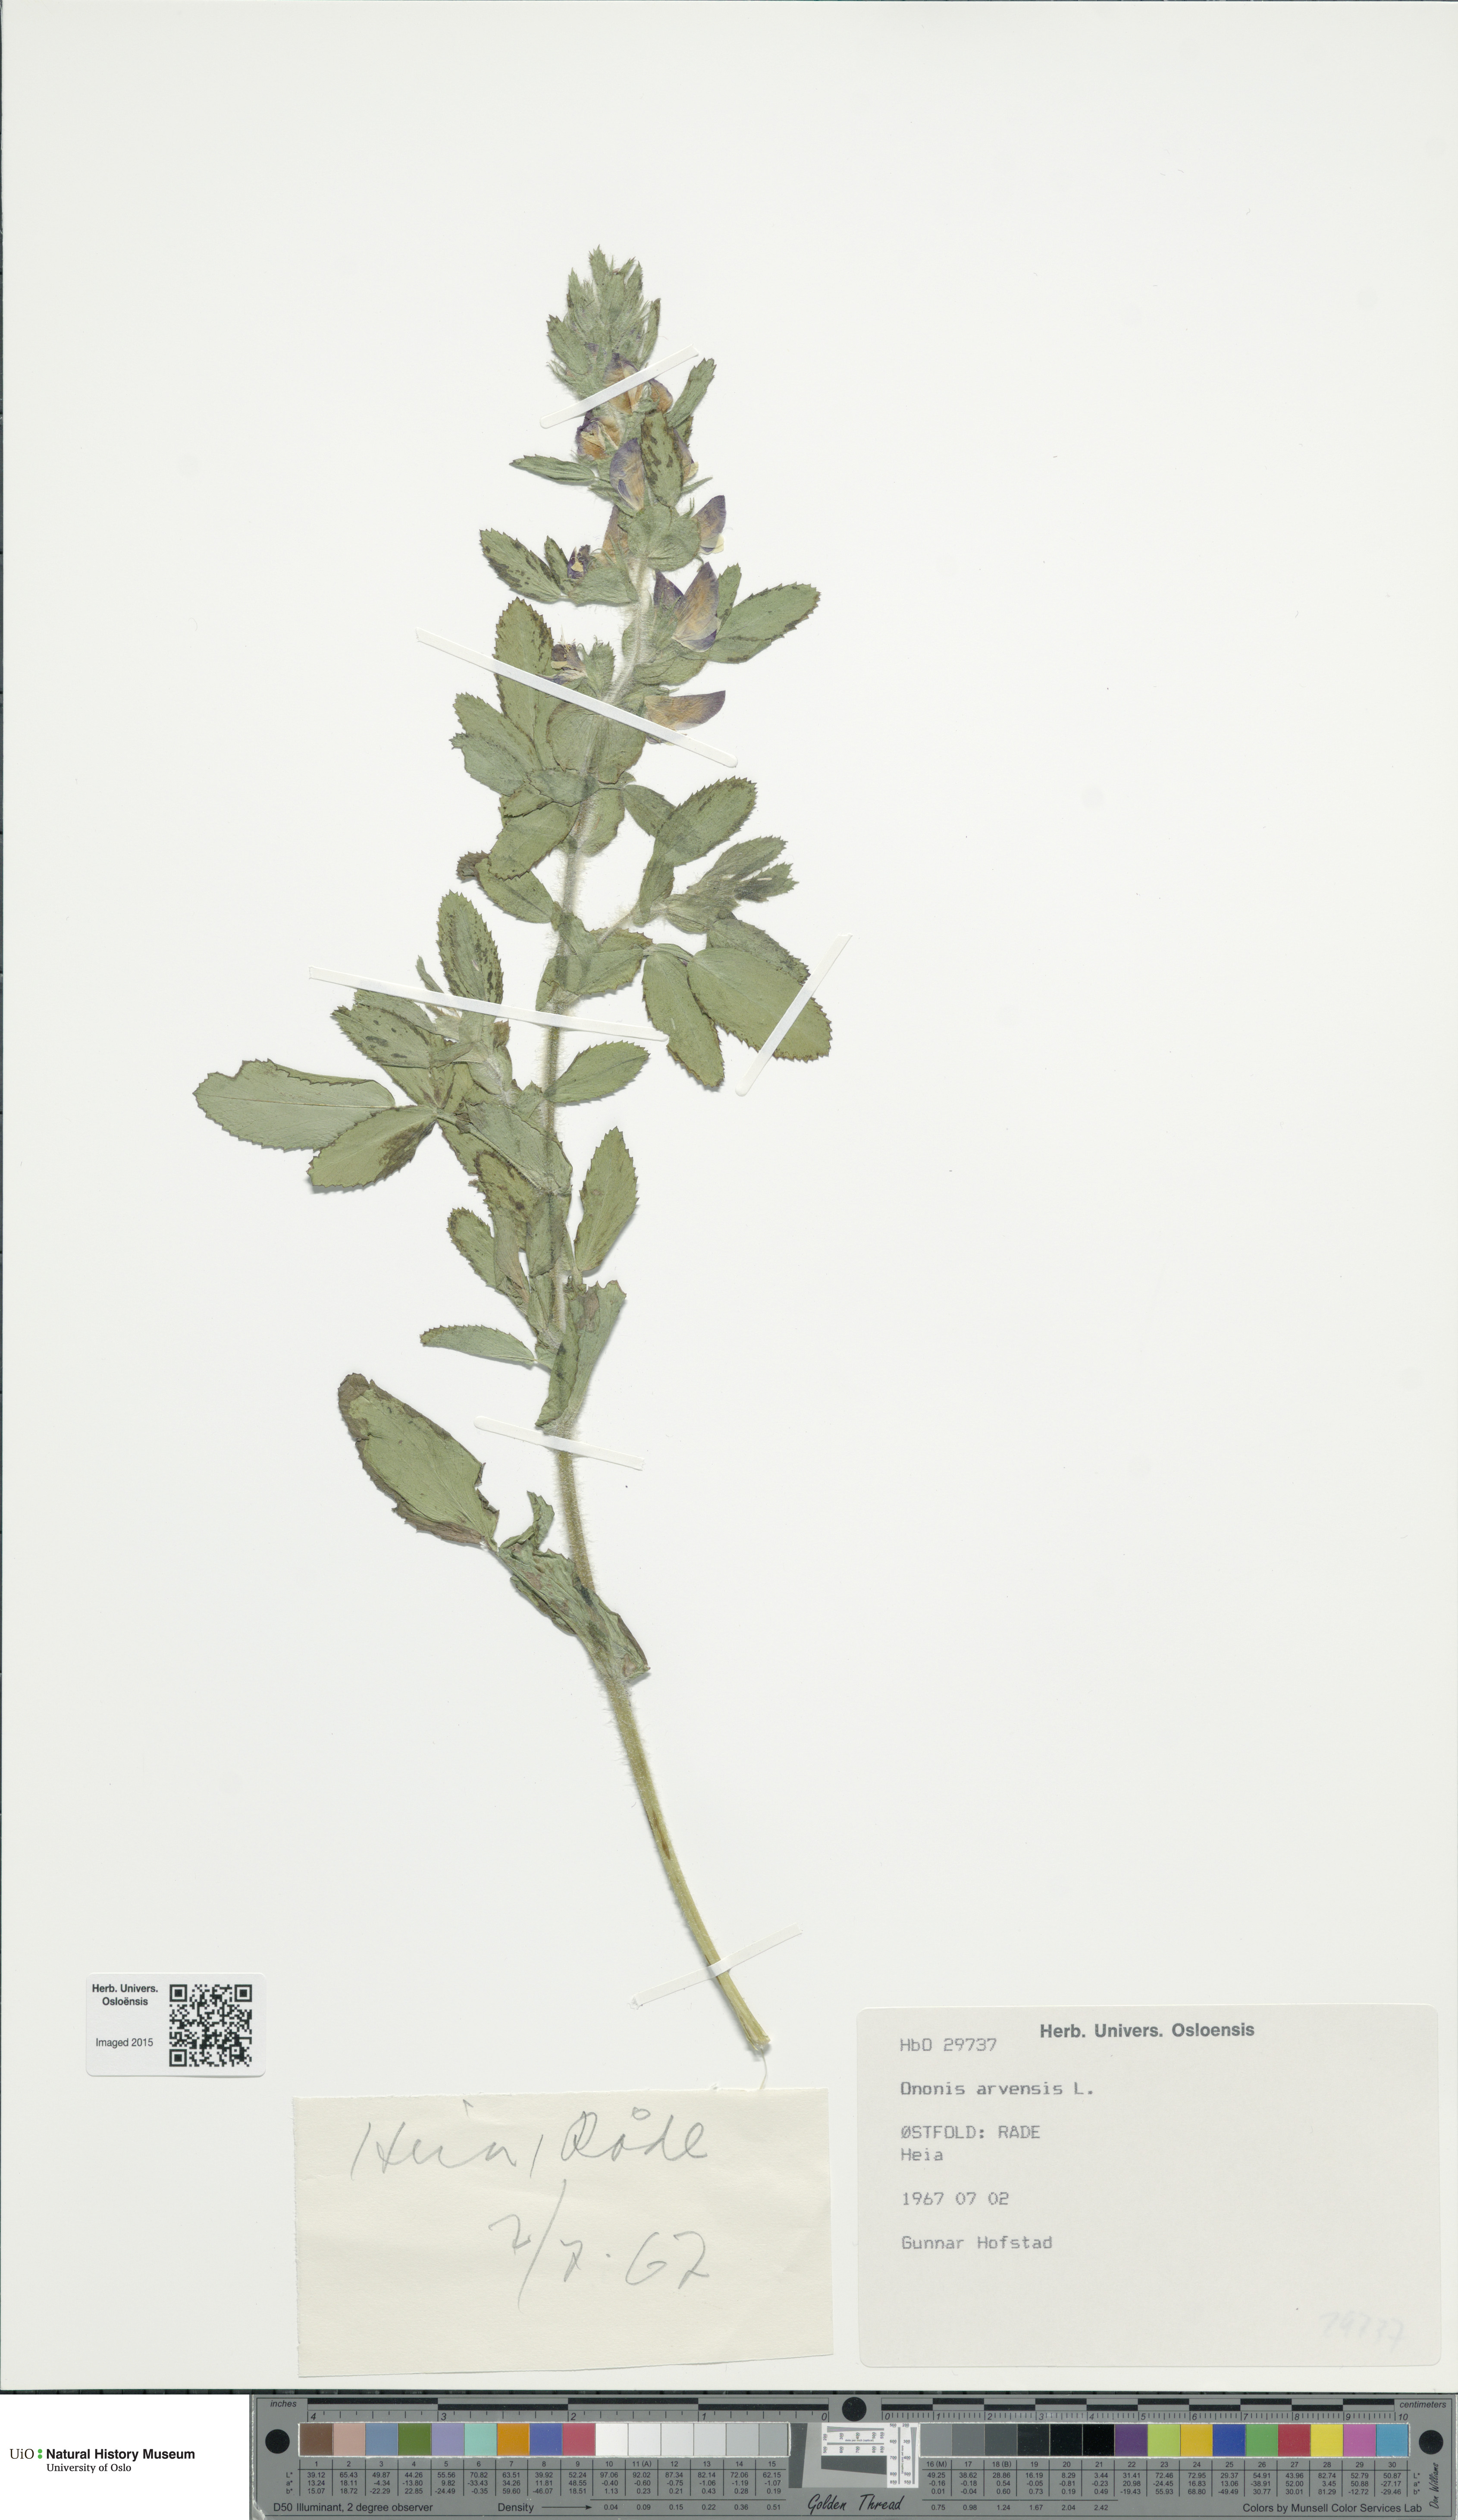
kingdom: Plantae
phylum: Tracheophyta
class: Magnoliopsida
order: Fabales
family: Fabaceae
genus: Ononis
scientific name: Ononis arvensis
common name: Field restharrow
